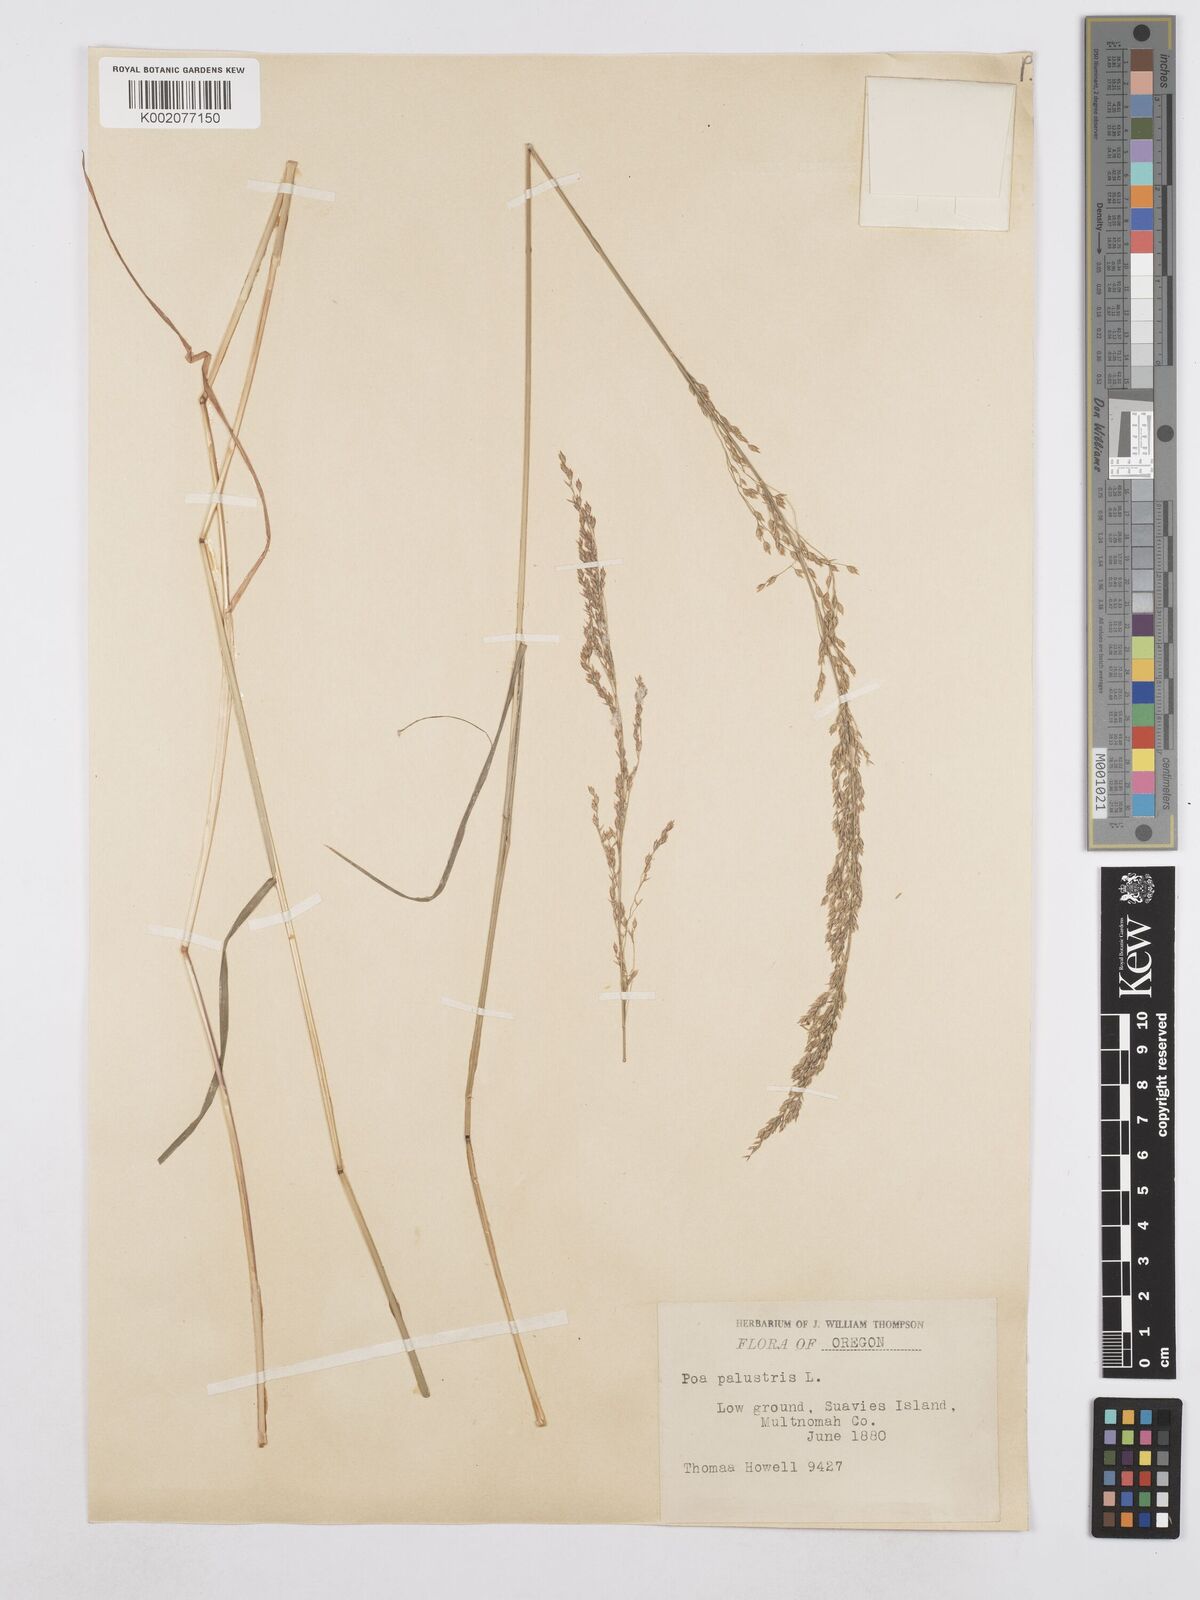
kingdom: Plantae
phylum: Tracheophyta
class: Liliopsida
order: Poales
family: Poaceae
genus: Poa
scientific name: Poa palustris
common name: Swamp meadow-grass
